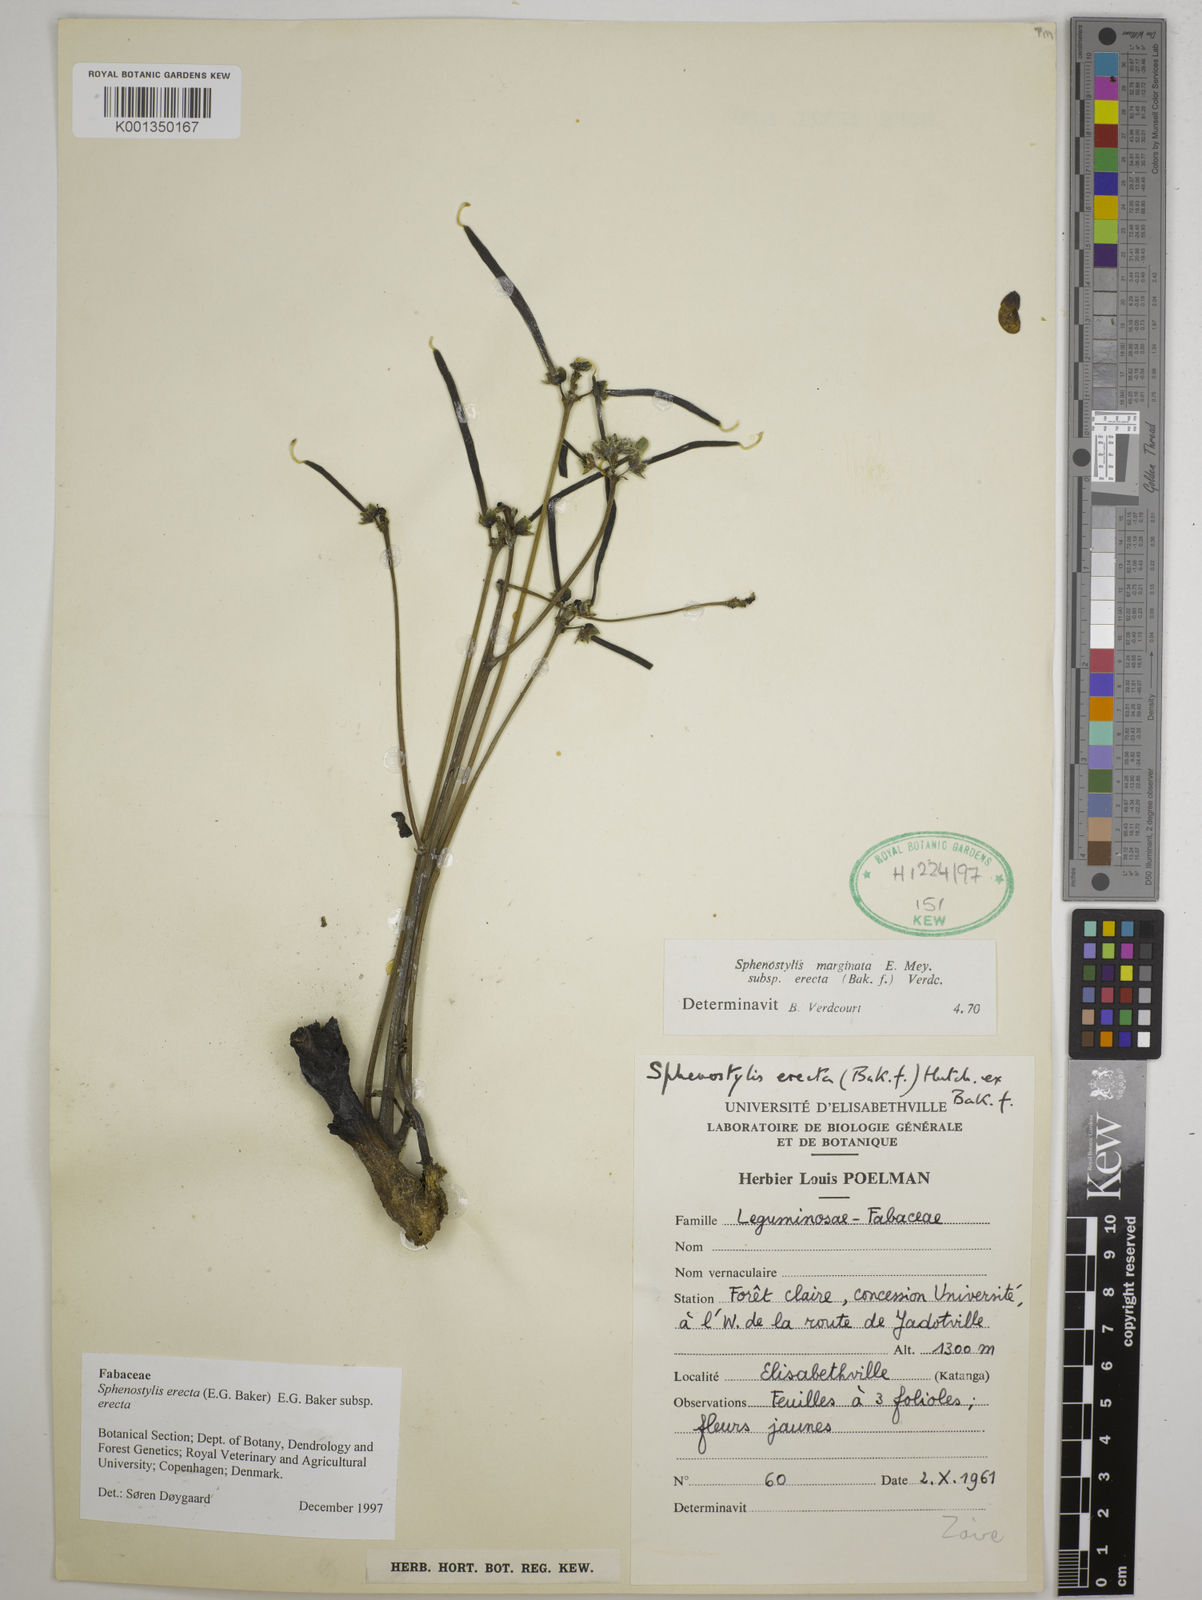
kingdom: Plantae
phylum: Tracheophyta
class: Magnoliopsida
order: Fabales
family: Fabaceae
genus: Sphenostylis
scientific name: Sphenostylis erecta
